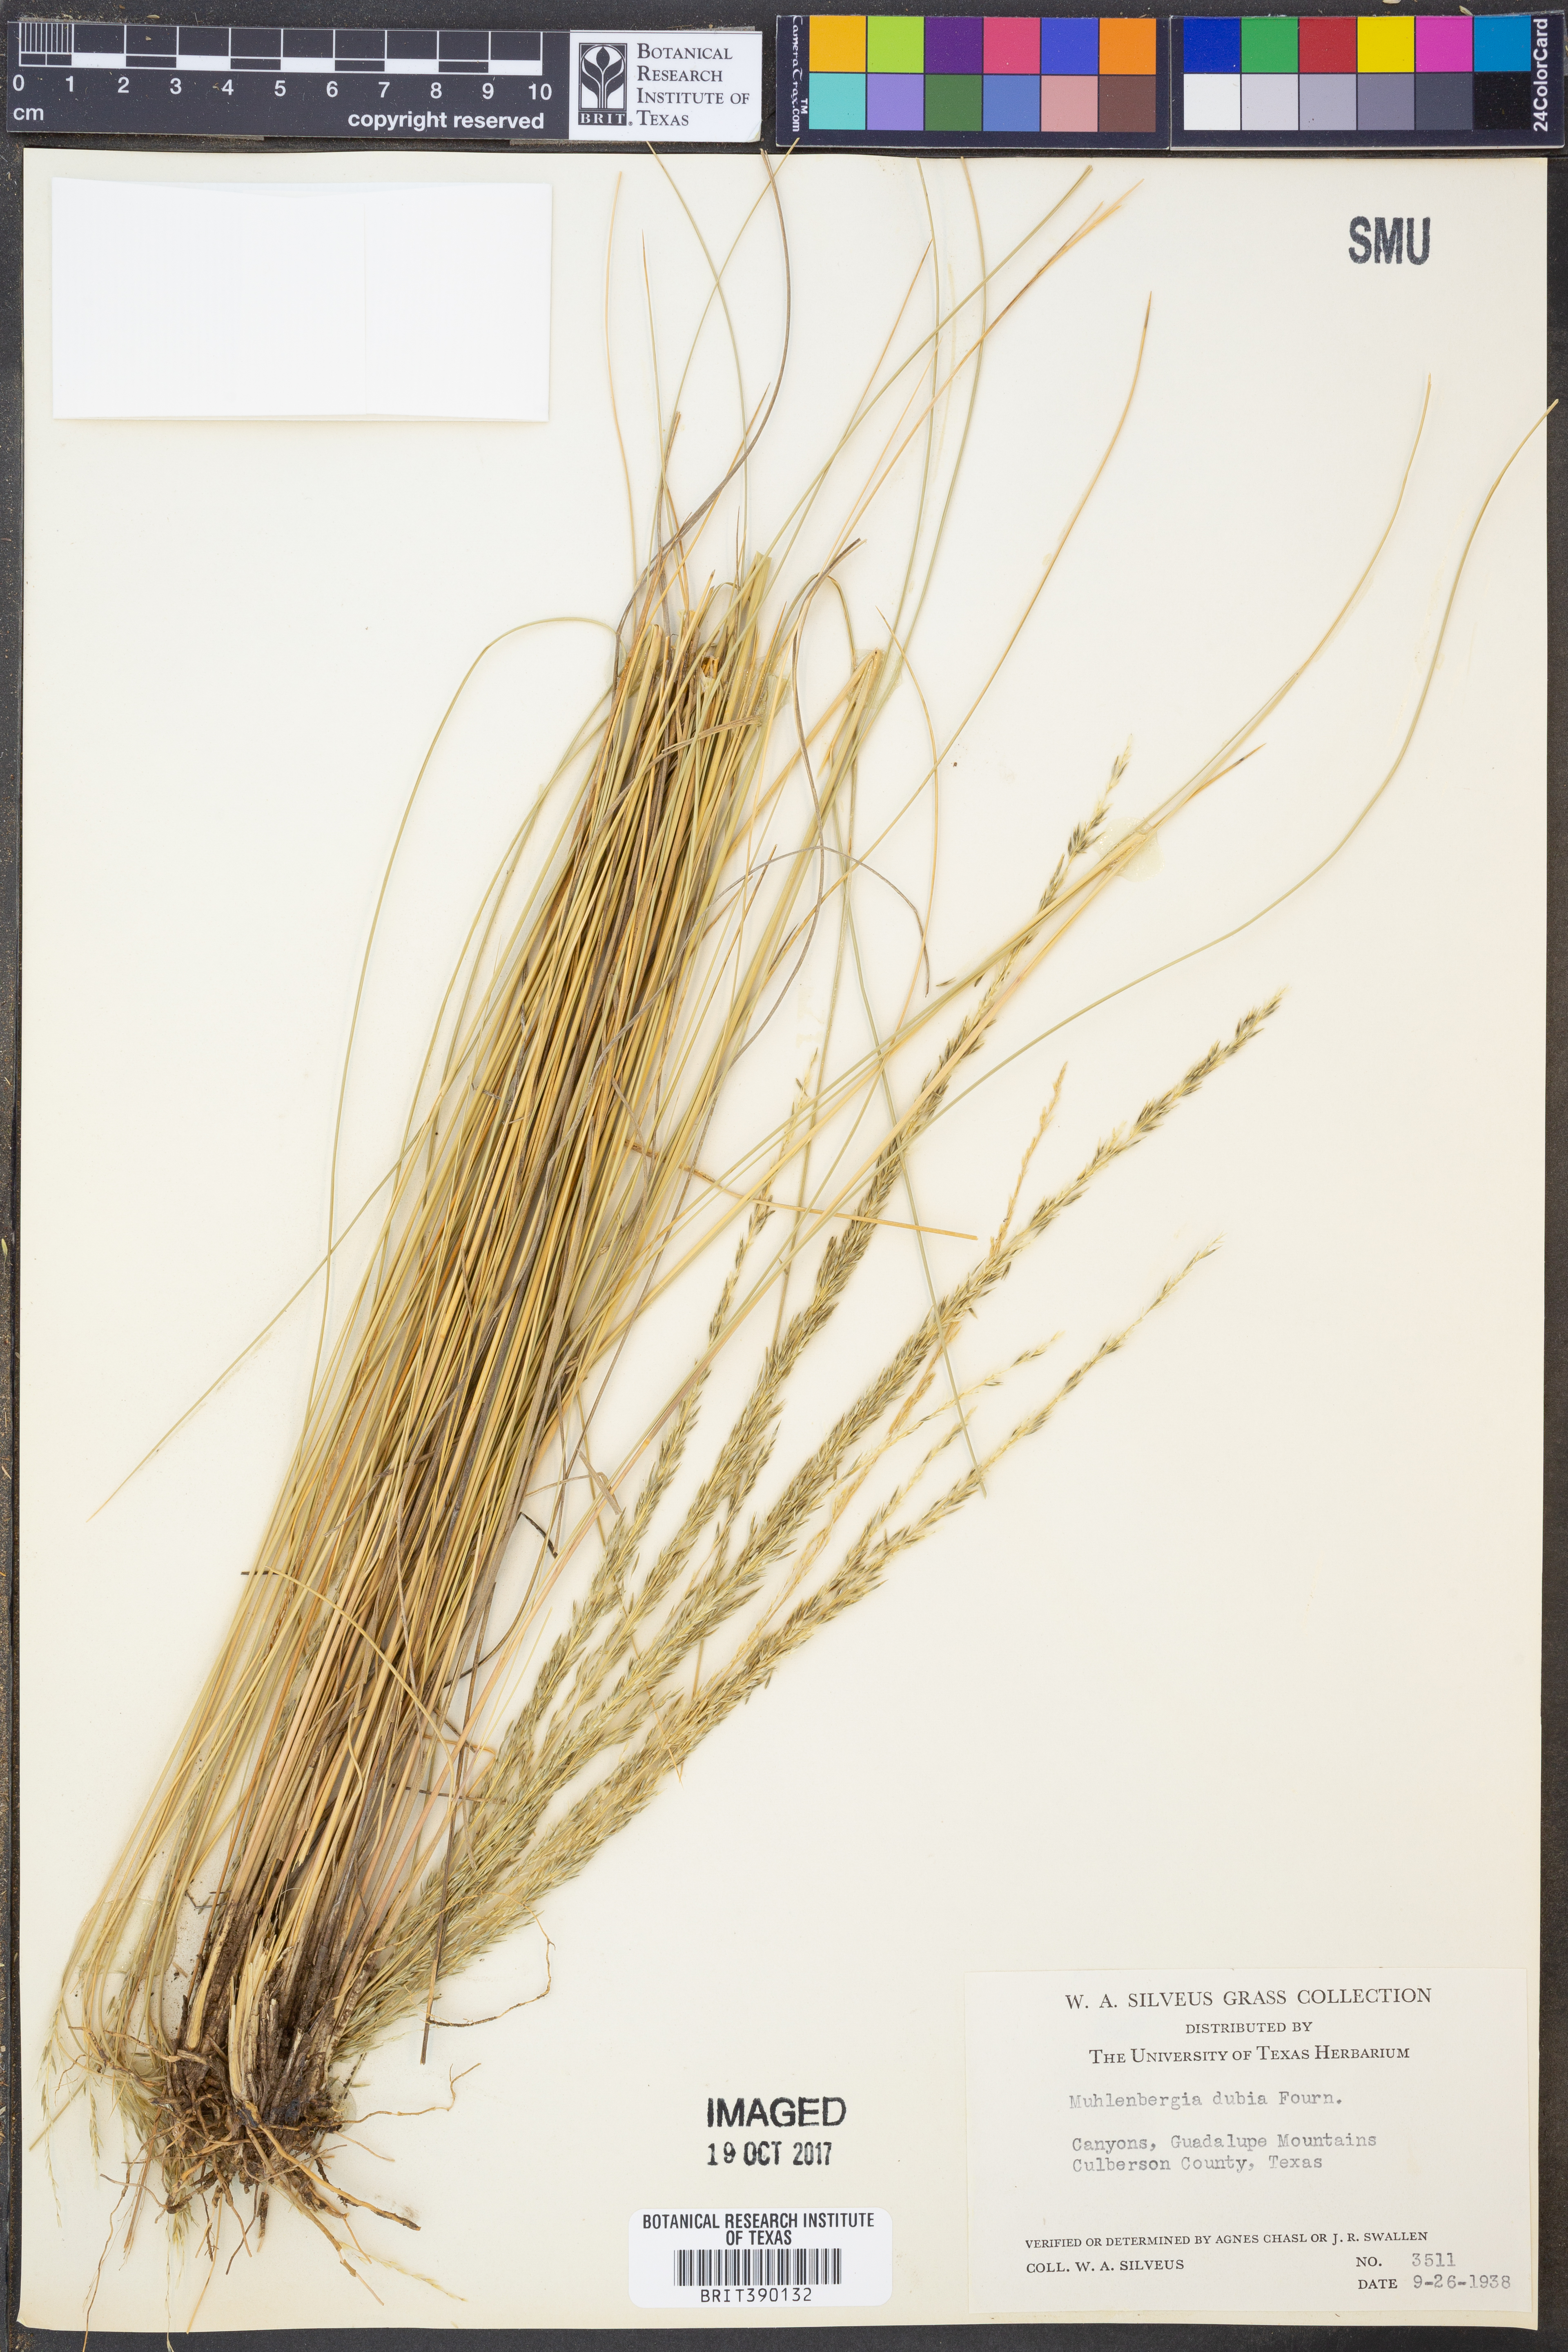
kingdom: Plantae
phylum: Tracheophyta
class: Liliopsida
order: Poales
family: Poaceae
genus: Muhlenbergia
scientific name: Muhlenbergia dubia
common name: Pine muhly
